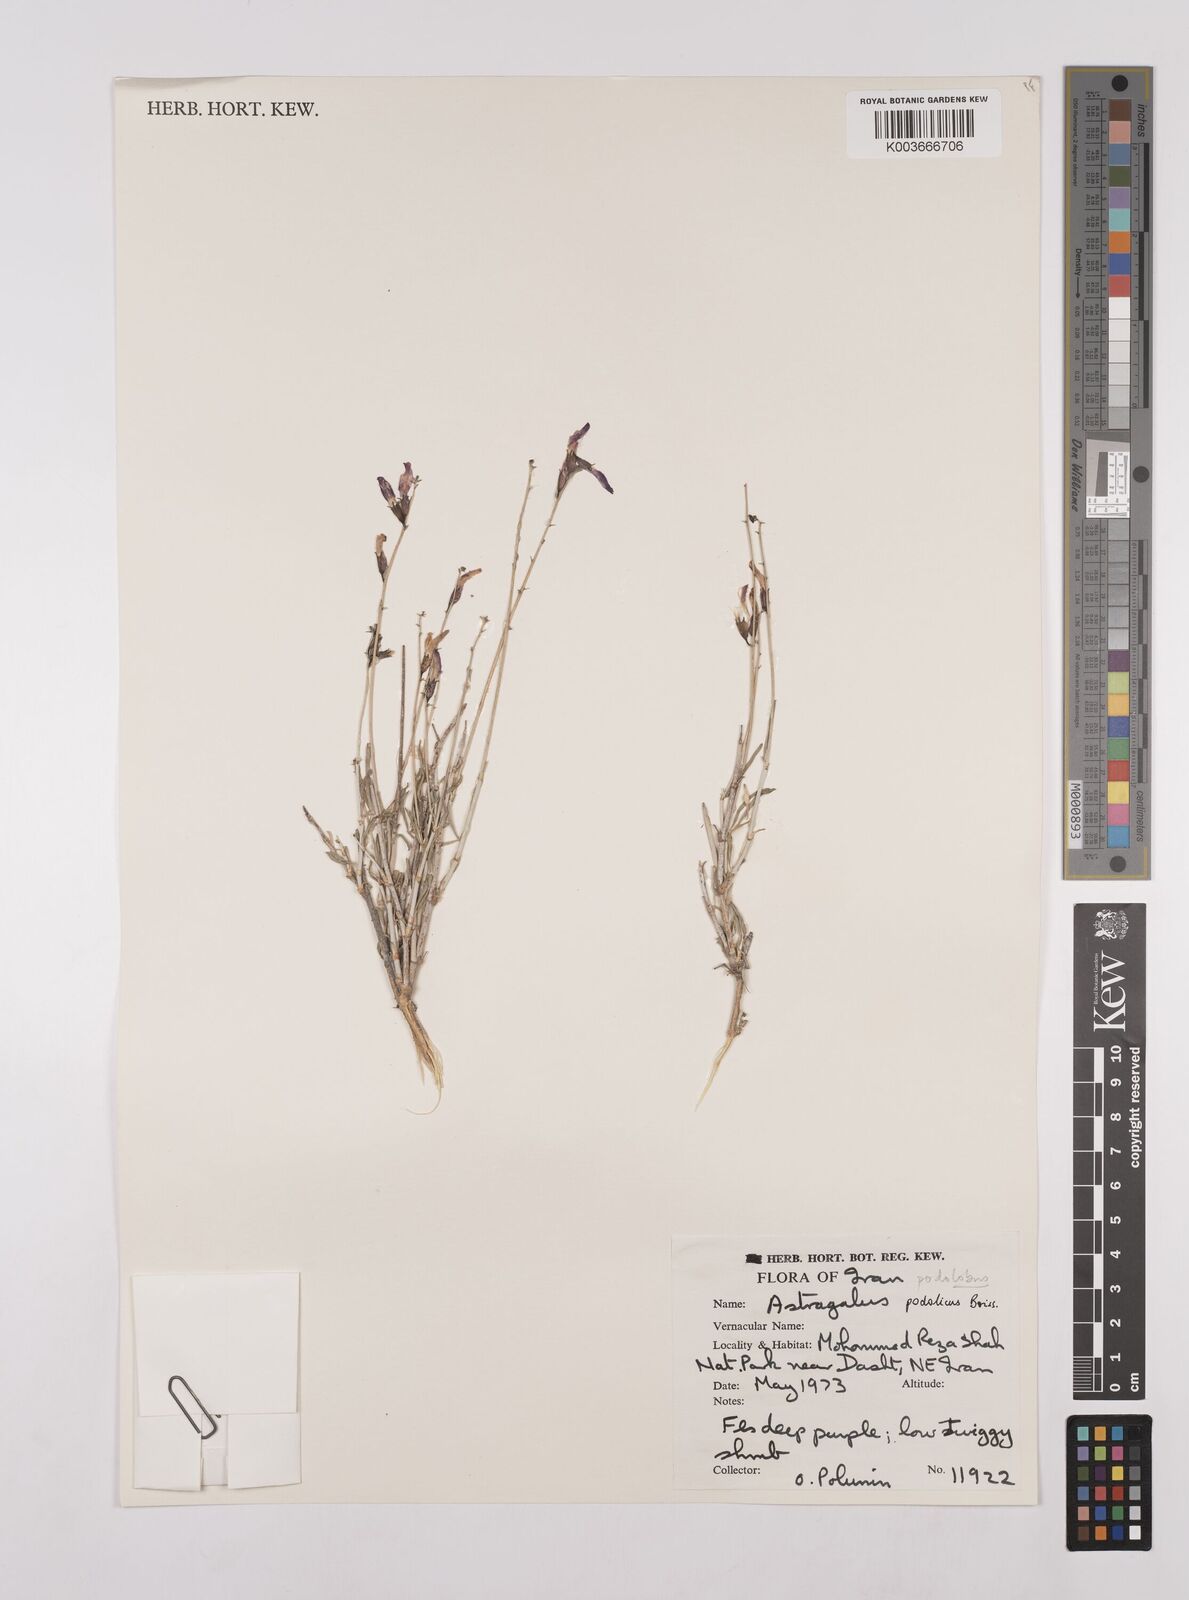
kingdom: Plantae
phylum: Tracheophyta
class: Magnoliopsida
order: Fabales
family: Fabaceae
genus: Astragalus
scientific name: Astragalus podolobus
